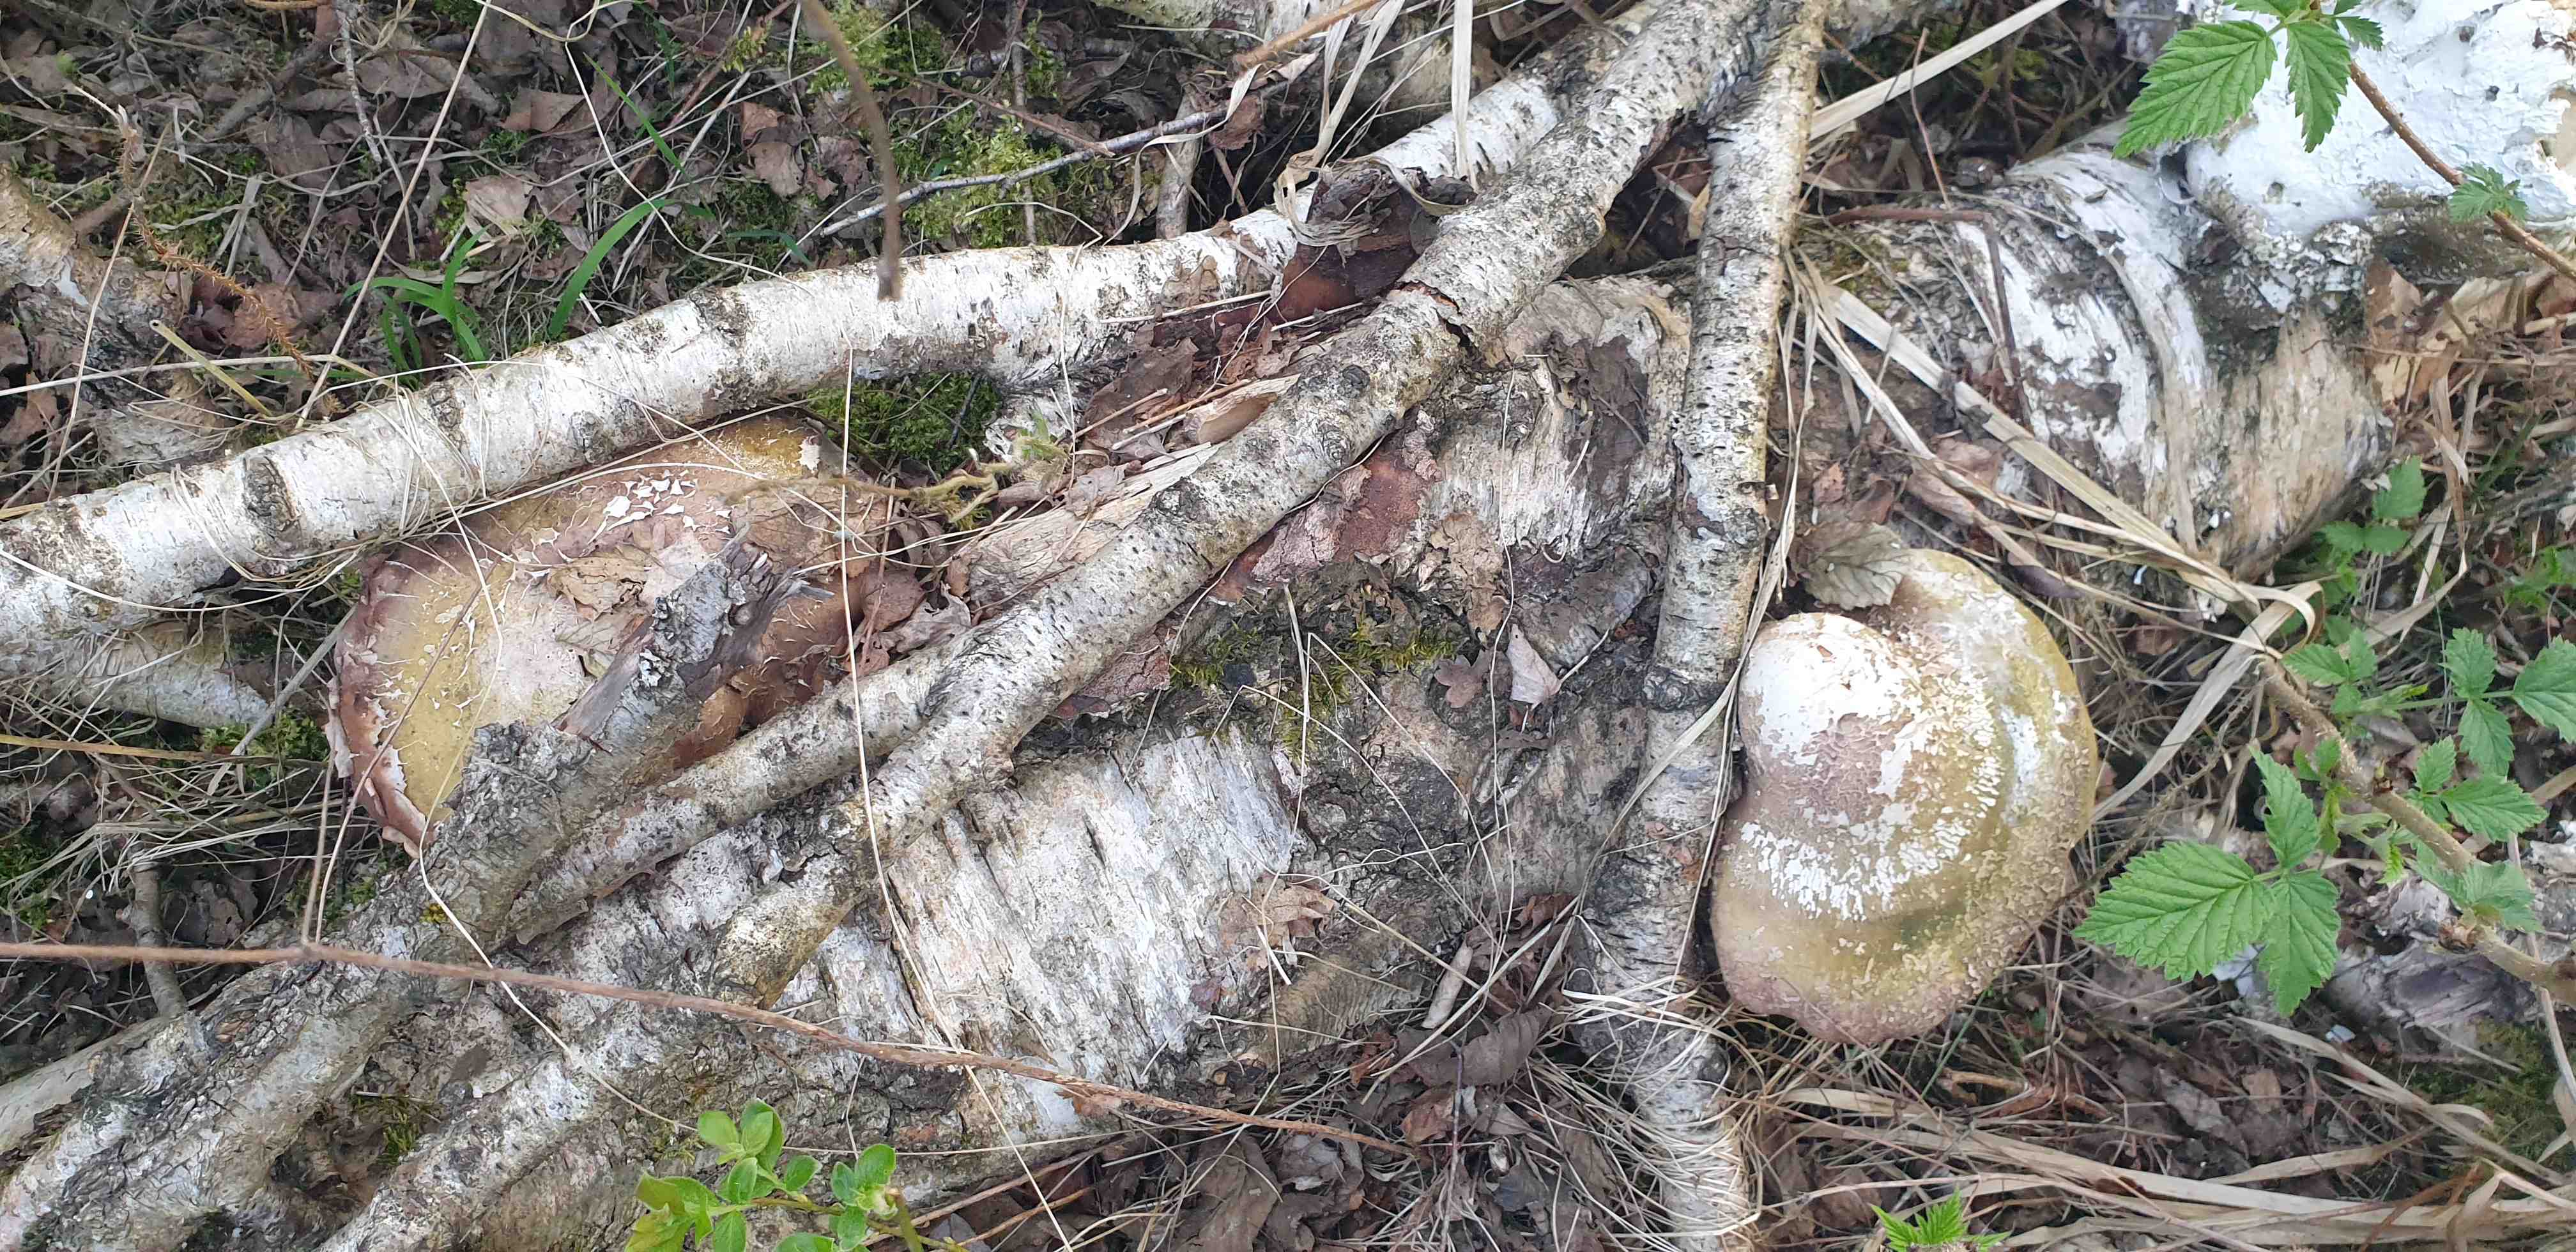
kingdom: Fungi
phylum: Basidiomycota
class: Agaricomycetes
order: Polyporales
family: Fomitopsidaceae
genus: Fomitopsis
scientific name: Fomitopsis betulina
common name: birkeporesvamp
